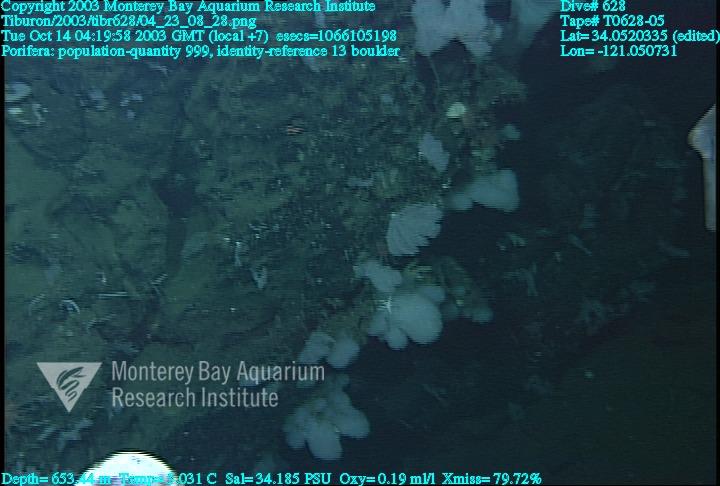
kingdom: Animalia
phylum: Porifera
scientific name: Porifera
